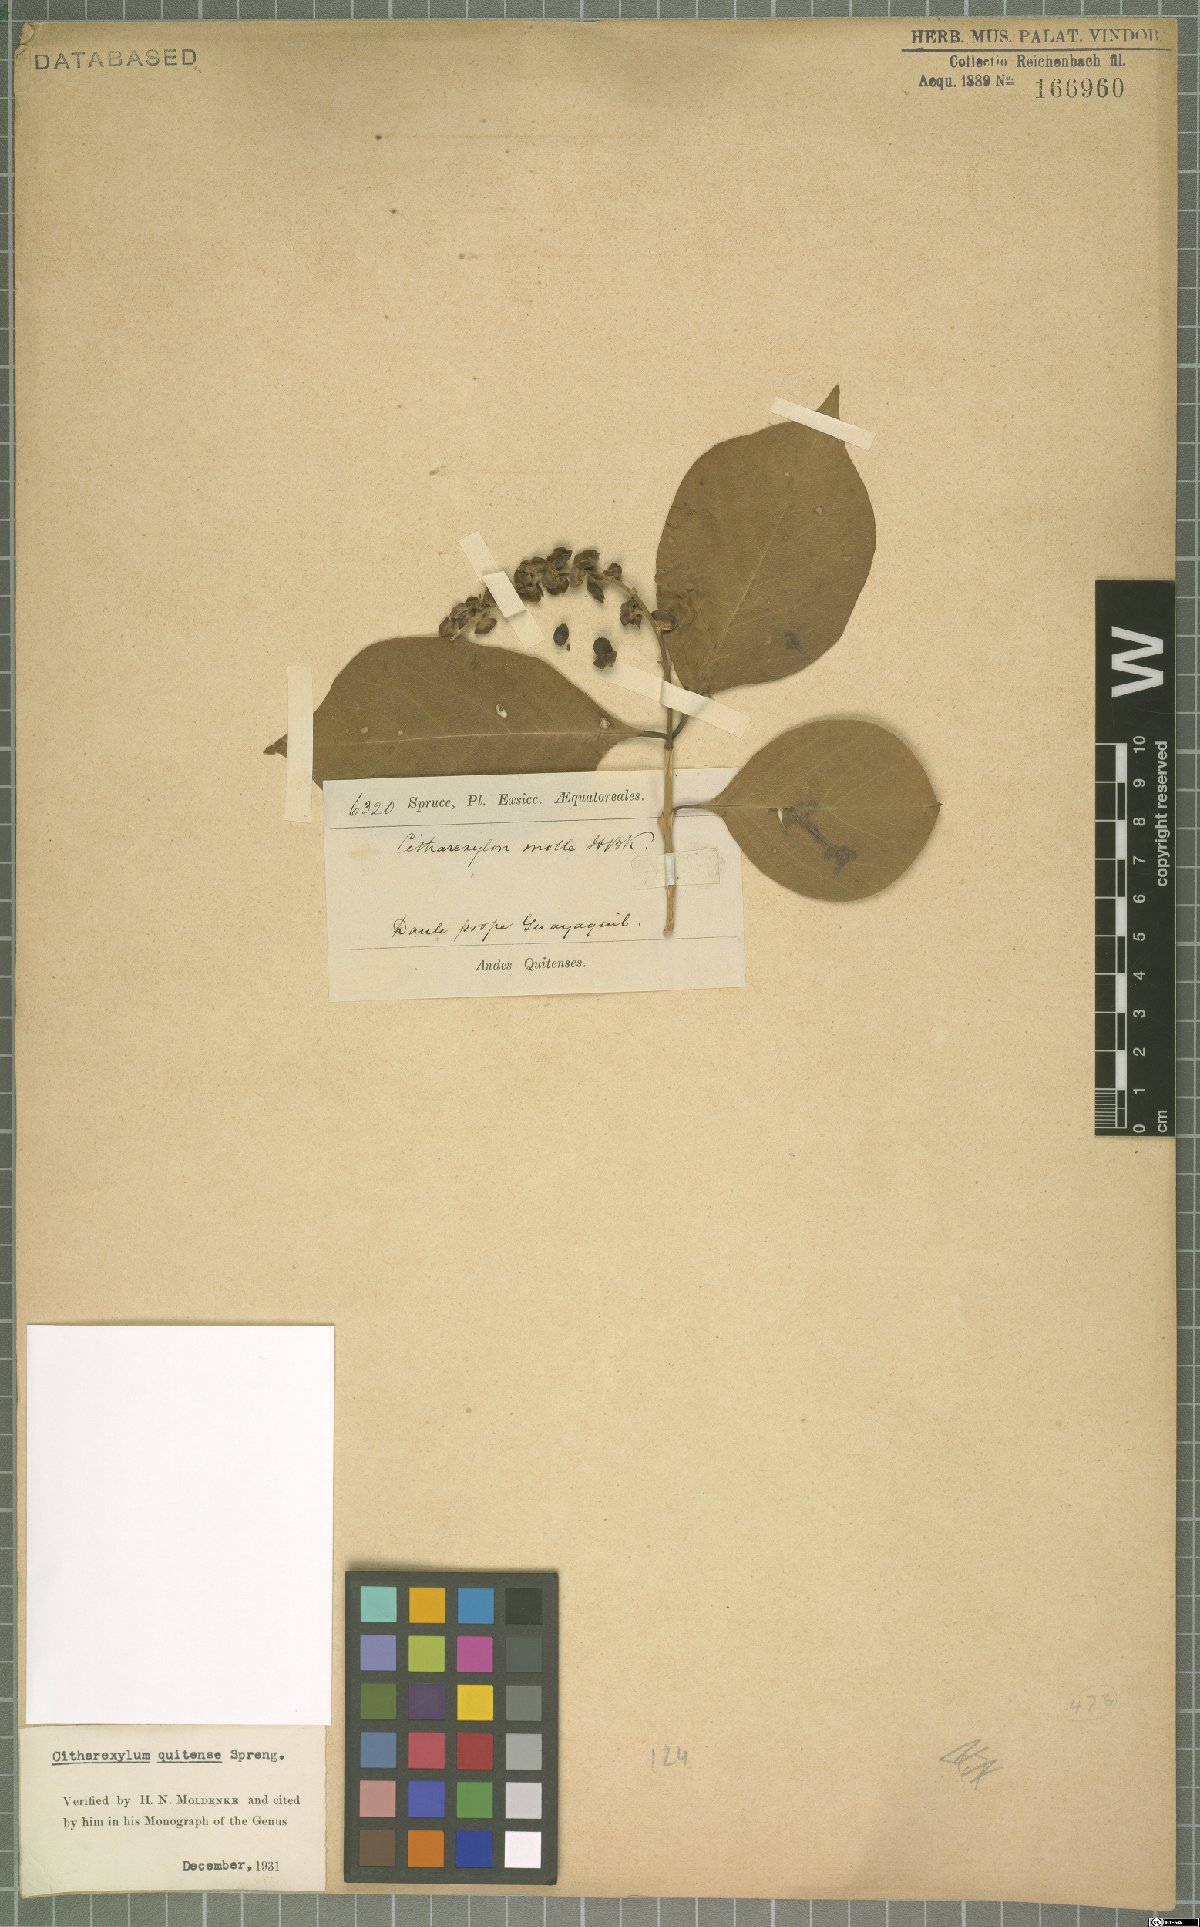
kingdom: Plantae
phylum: Tracheophyta
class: Magnoliopsida
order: Lamiales
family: Verbenaceae
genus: Citharexylum
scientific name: Citharexylum quitense
